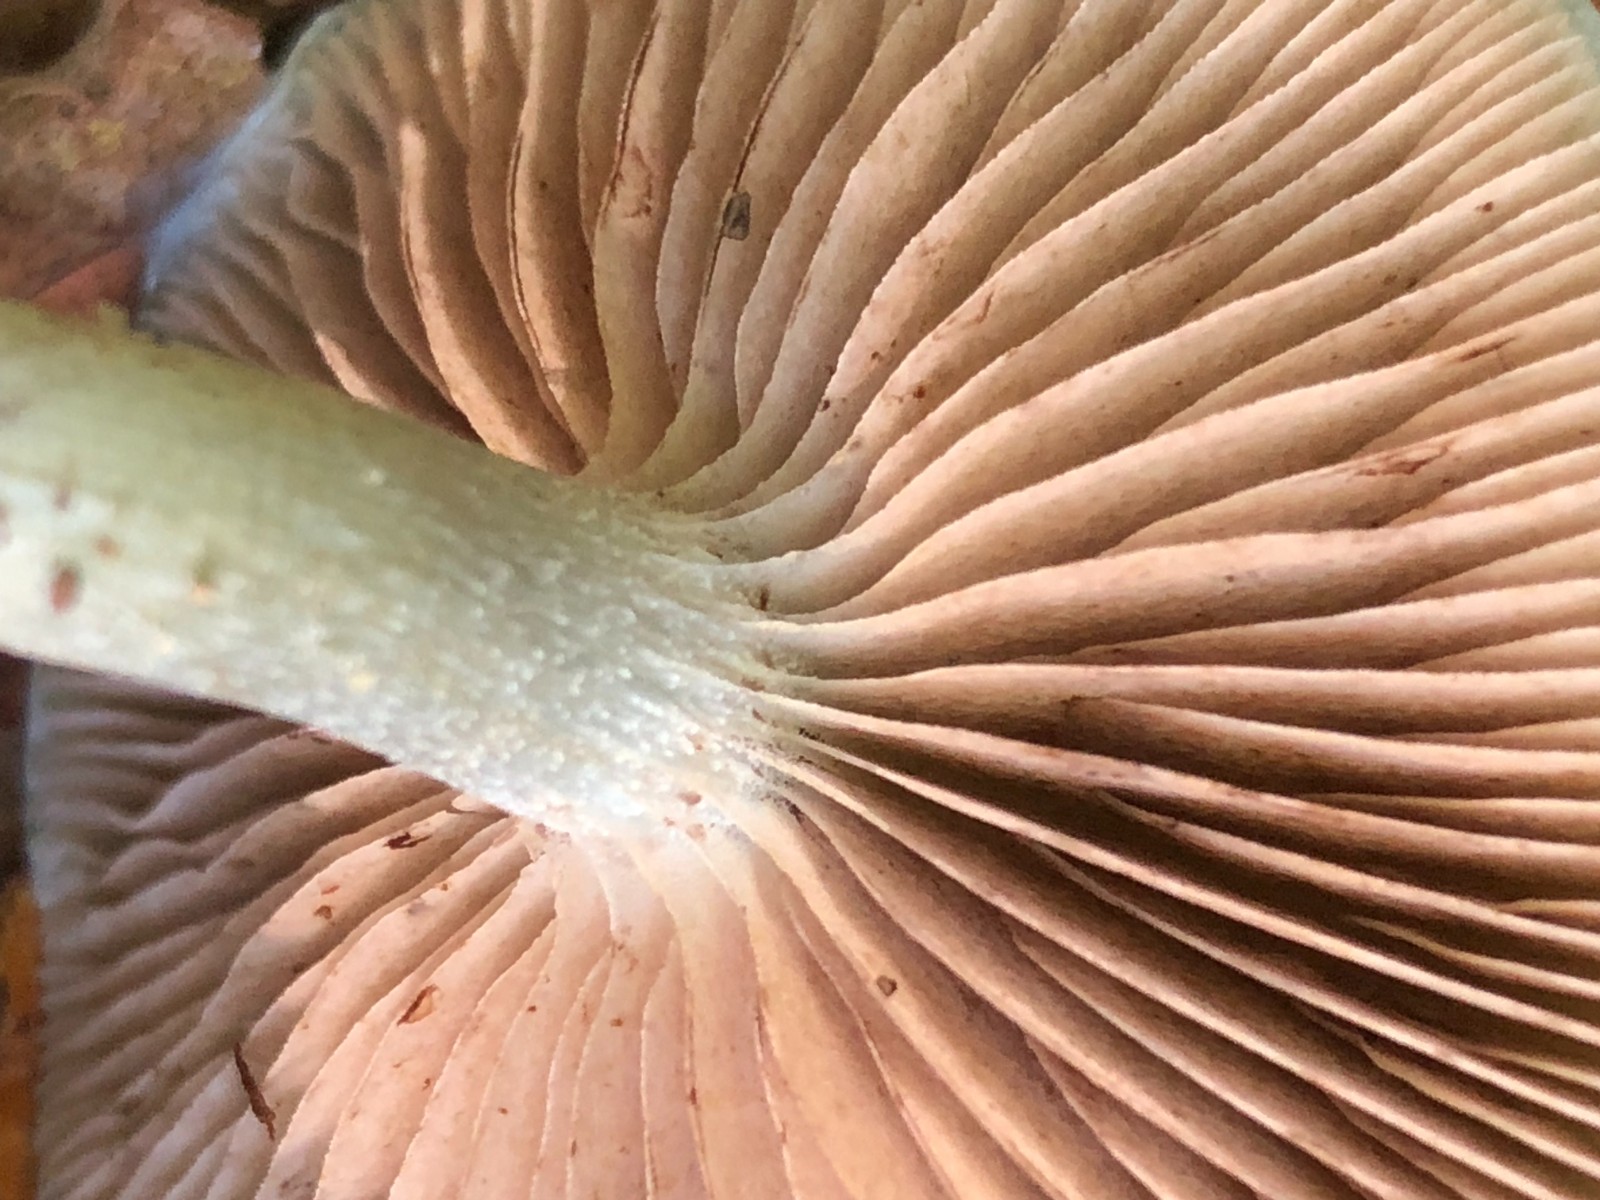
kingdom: Fungi
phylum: Basidiomycota
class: Agaricomycetes
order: Agaricales
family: Strophariaceae
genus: Stropharia
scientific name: Stropharia cyanea
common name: blågrøn bredblad
